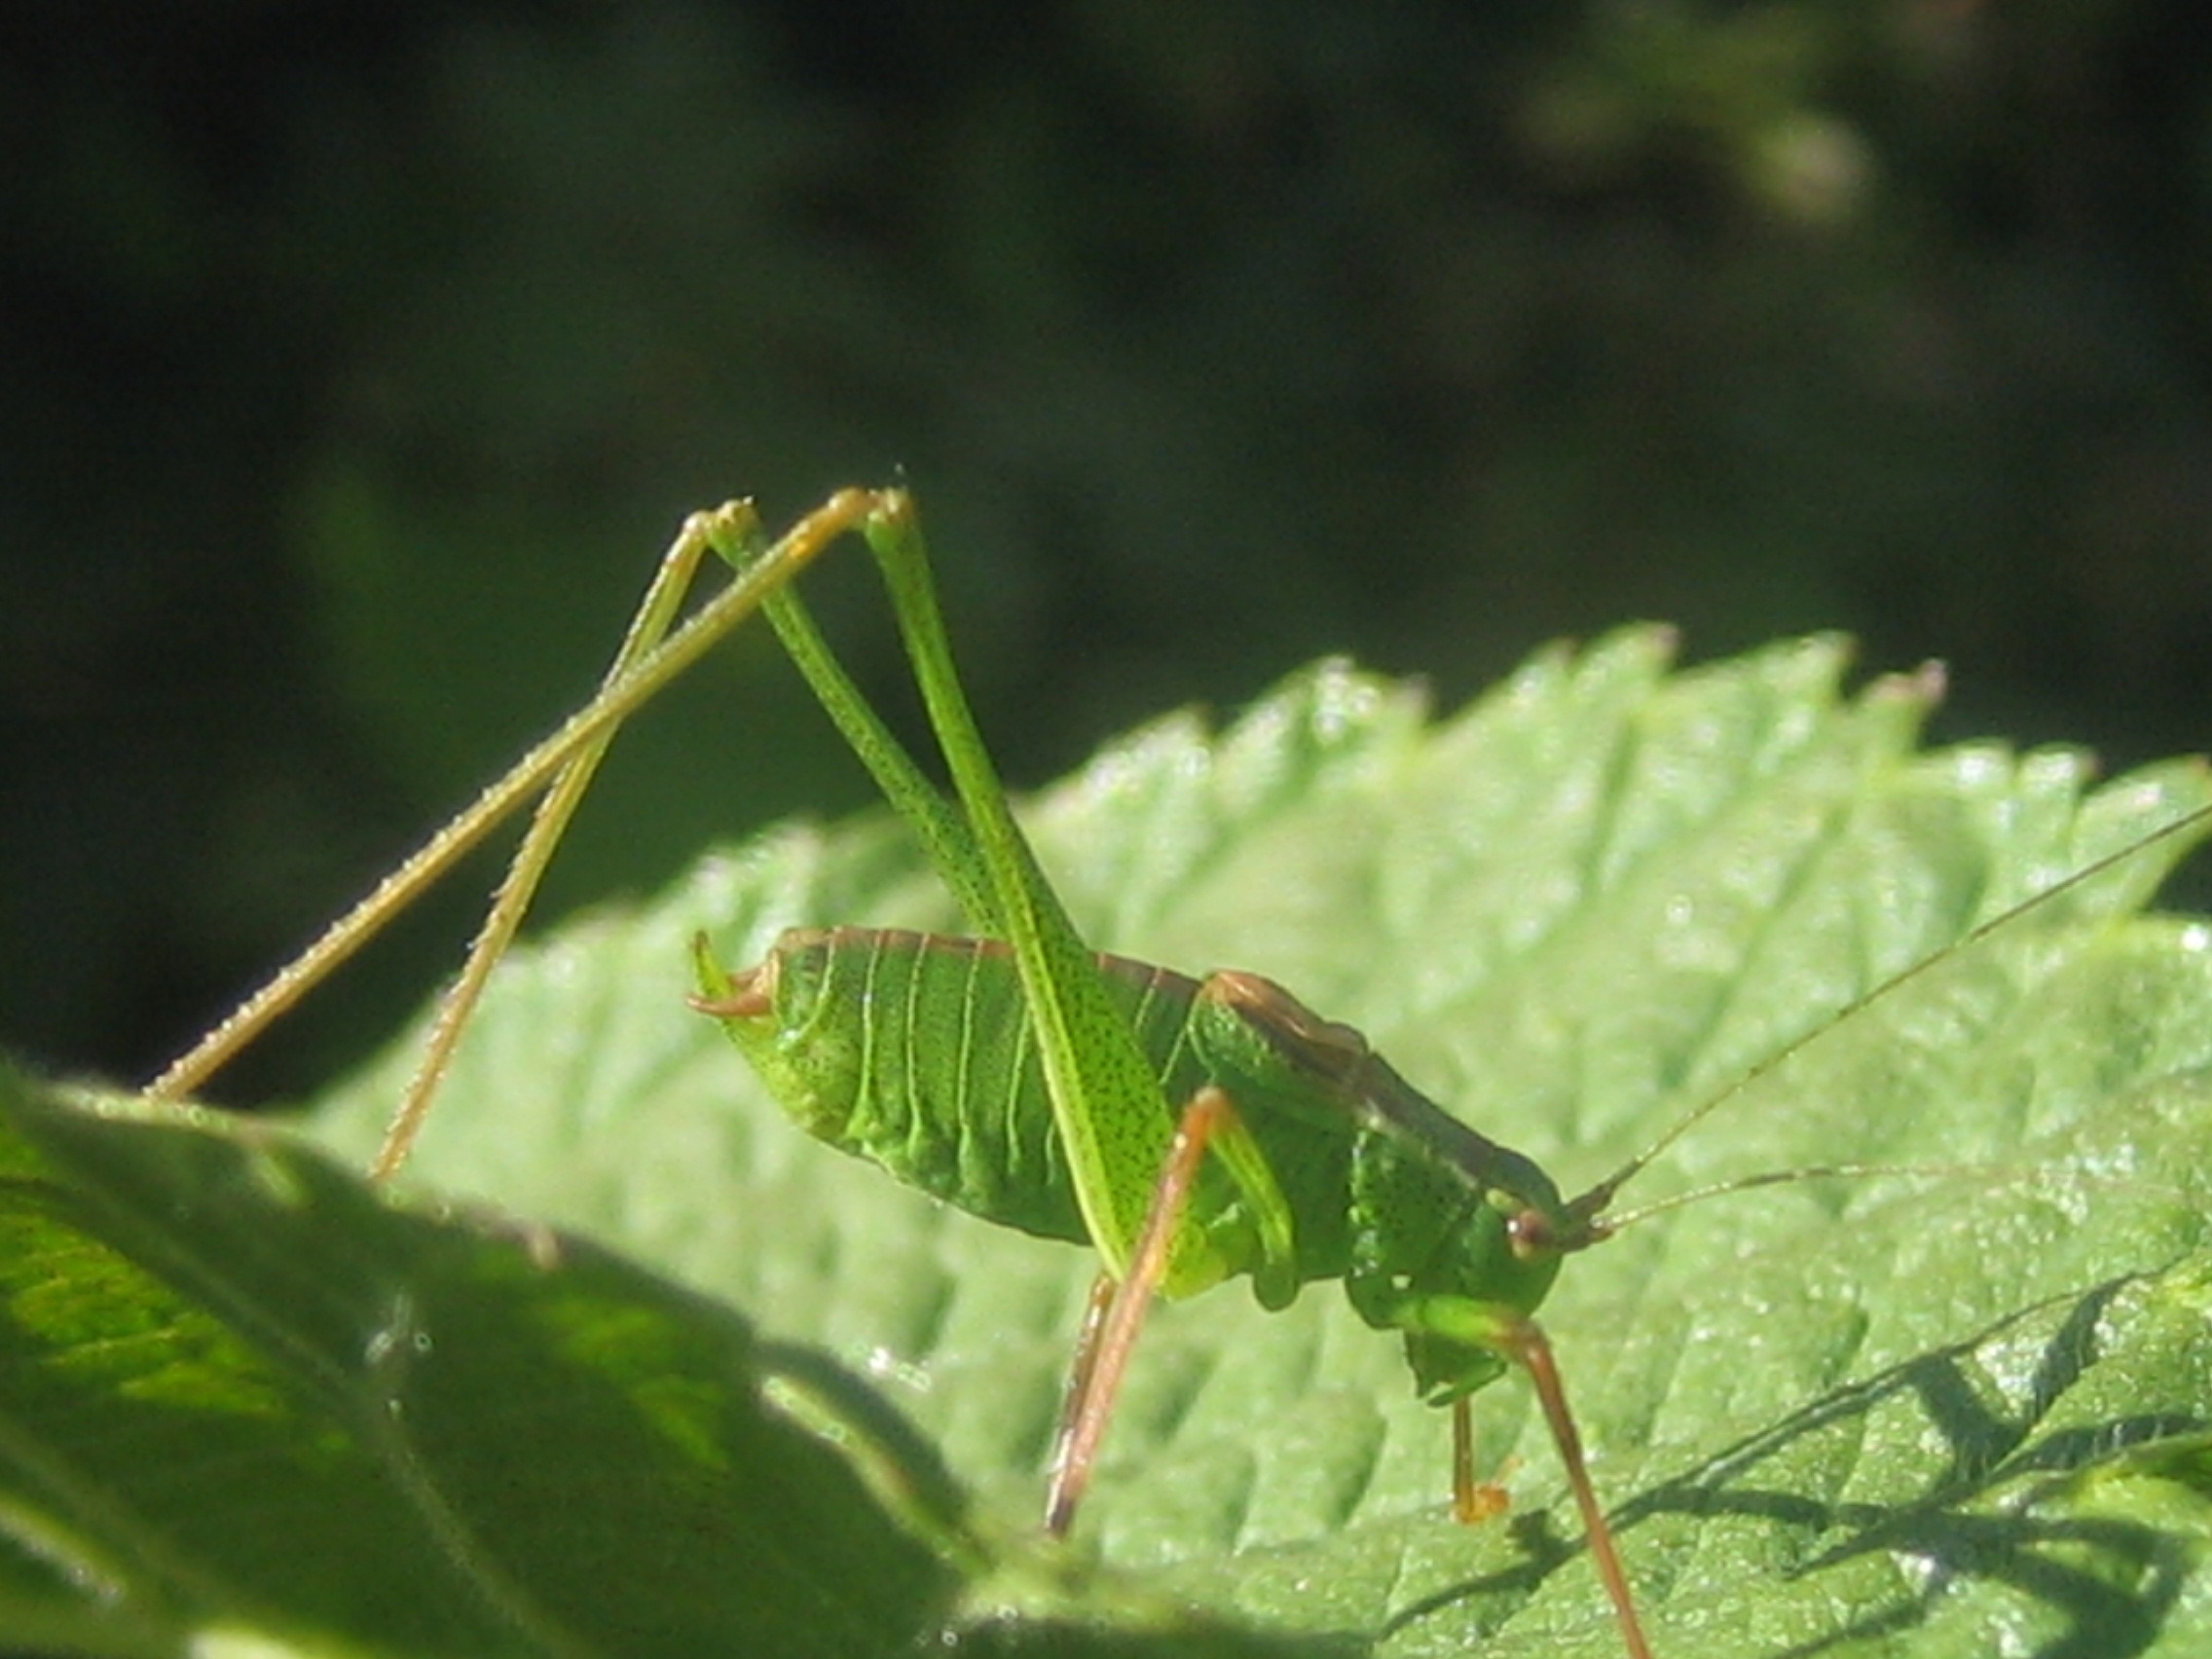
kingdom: Animalia
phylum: Arthropoda
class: Insecta
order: Orthoptera
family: Tettigoniidae
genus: Leptophyes
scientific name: Leptophyes punctatissima
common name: Krumknivgræshoppe
